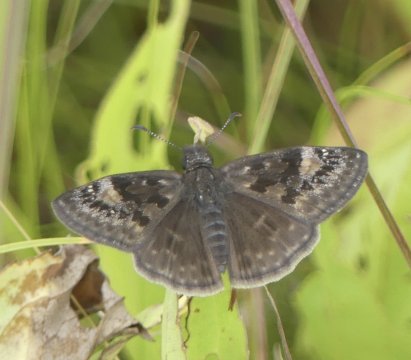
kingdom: Animalia
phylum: Arthropoda
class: Insecta
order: Lepidoptera
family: Hesperiidae
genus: Gesta
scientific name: Gesta
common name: Wild Indigo Duskywing
